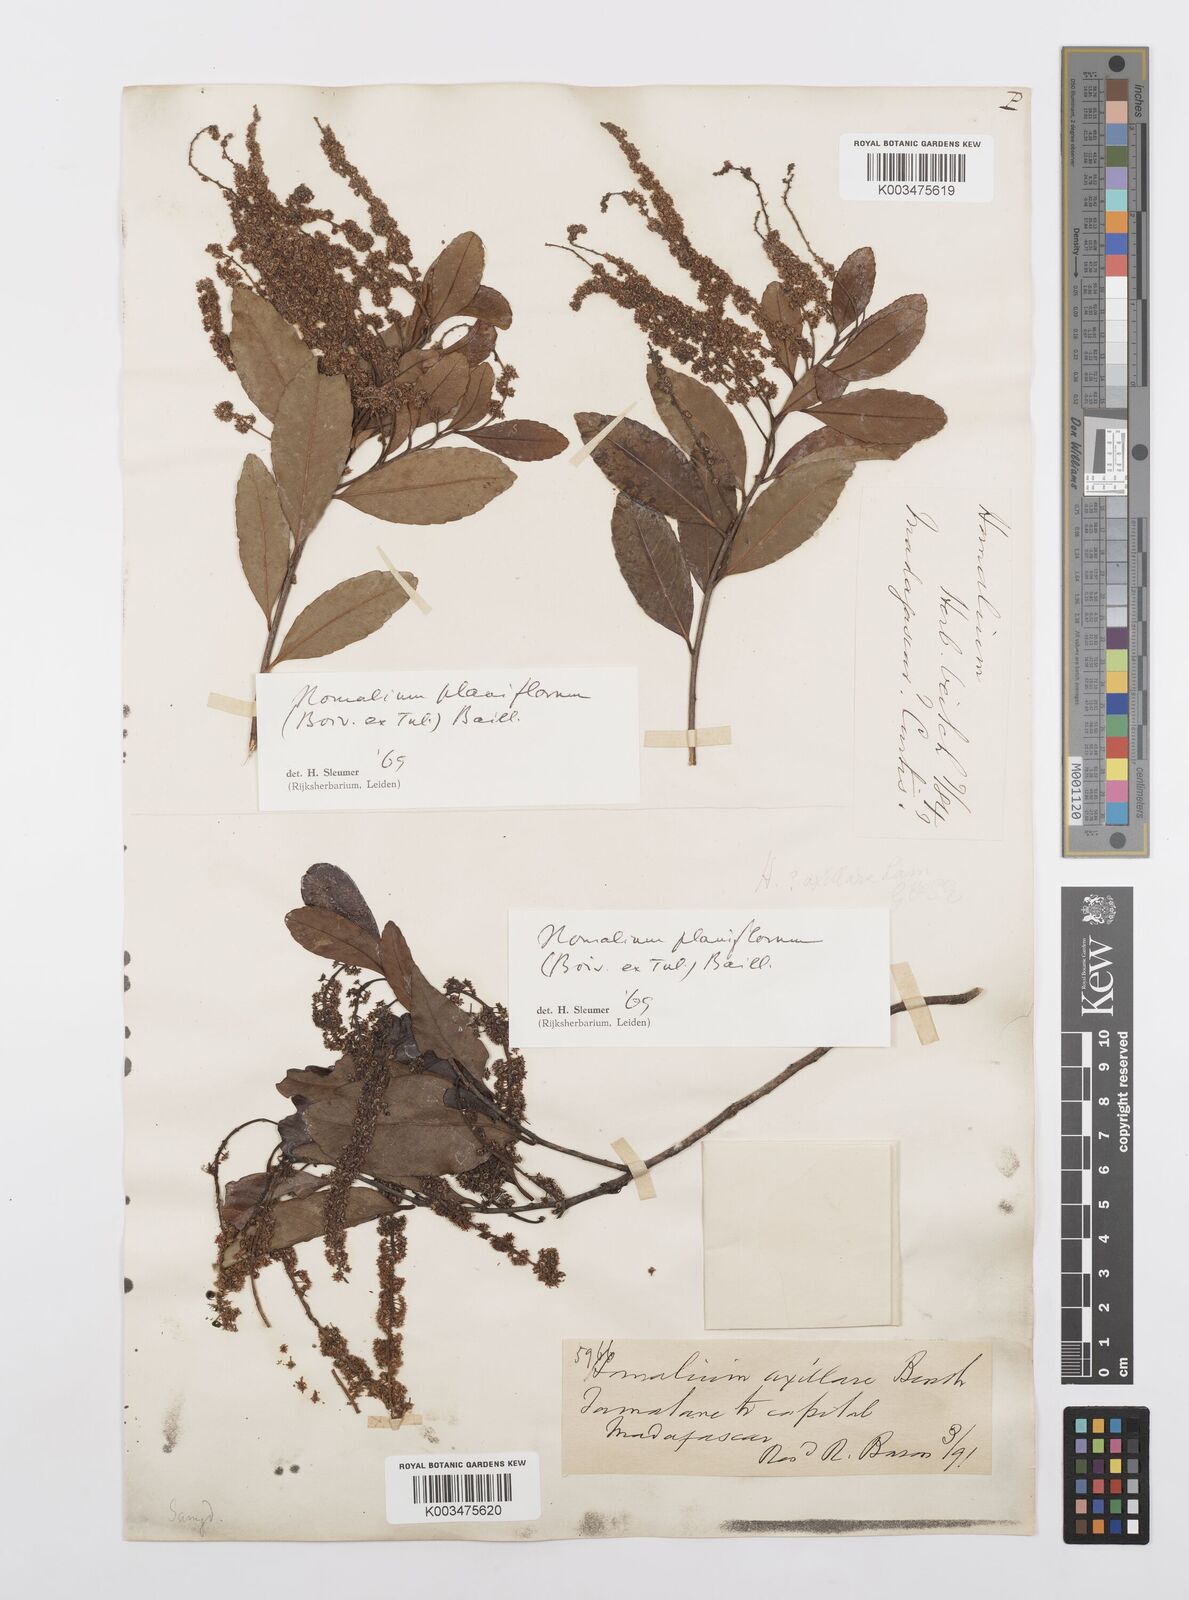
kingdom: Plantae
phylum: Tracheophyta
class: Magnoliopsida
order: Malpighiales
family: Salicaceae
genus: Homalium
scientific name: Homalium planiflorum
